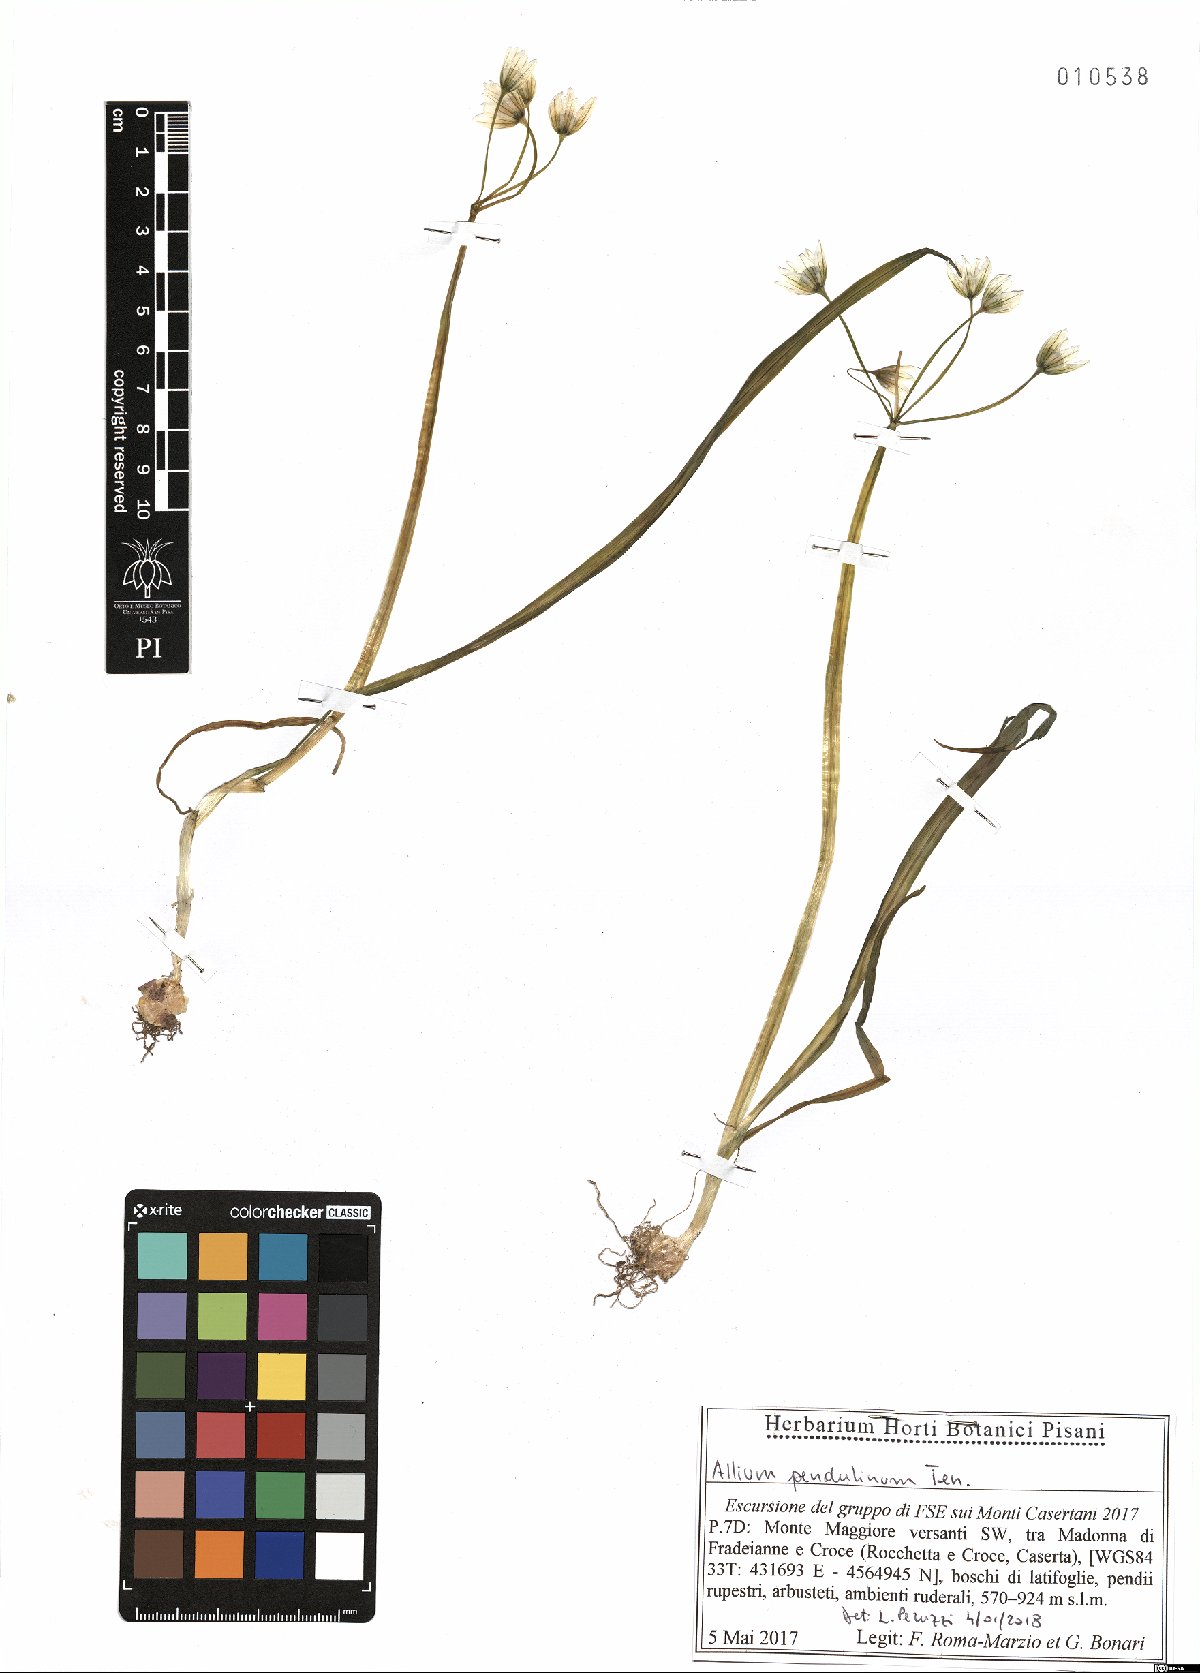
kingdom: Plantae
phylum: Tracheophyta
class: Liliopsida
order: Asparagales
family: Amaryllidaceae
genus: Allium
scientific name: Allium pendulinum
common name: Italian garlic
